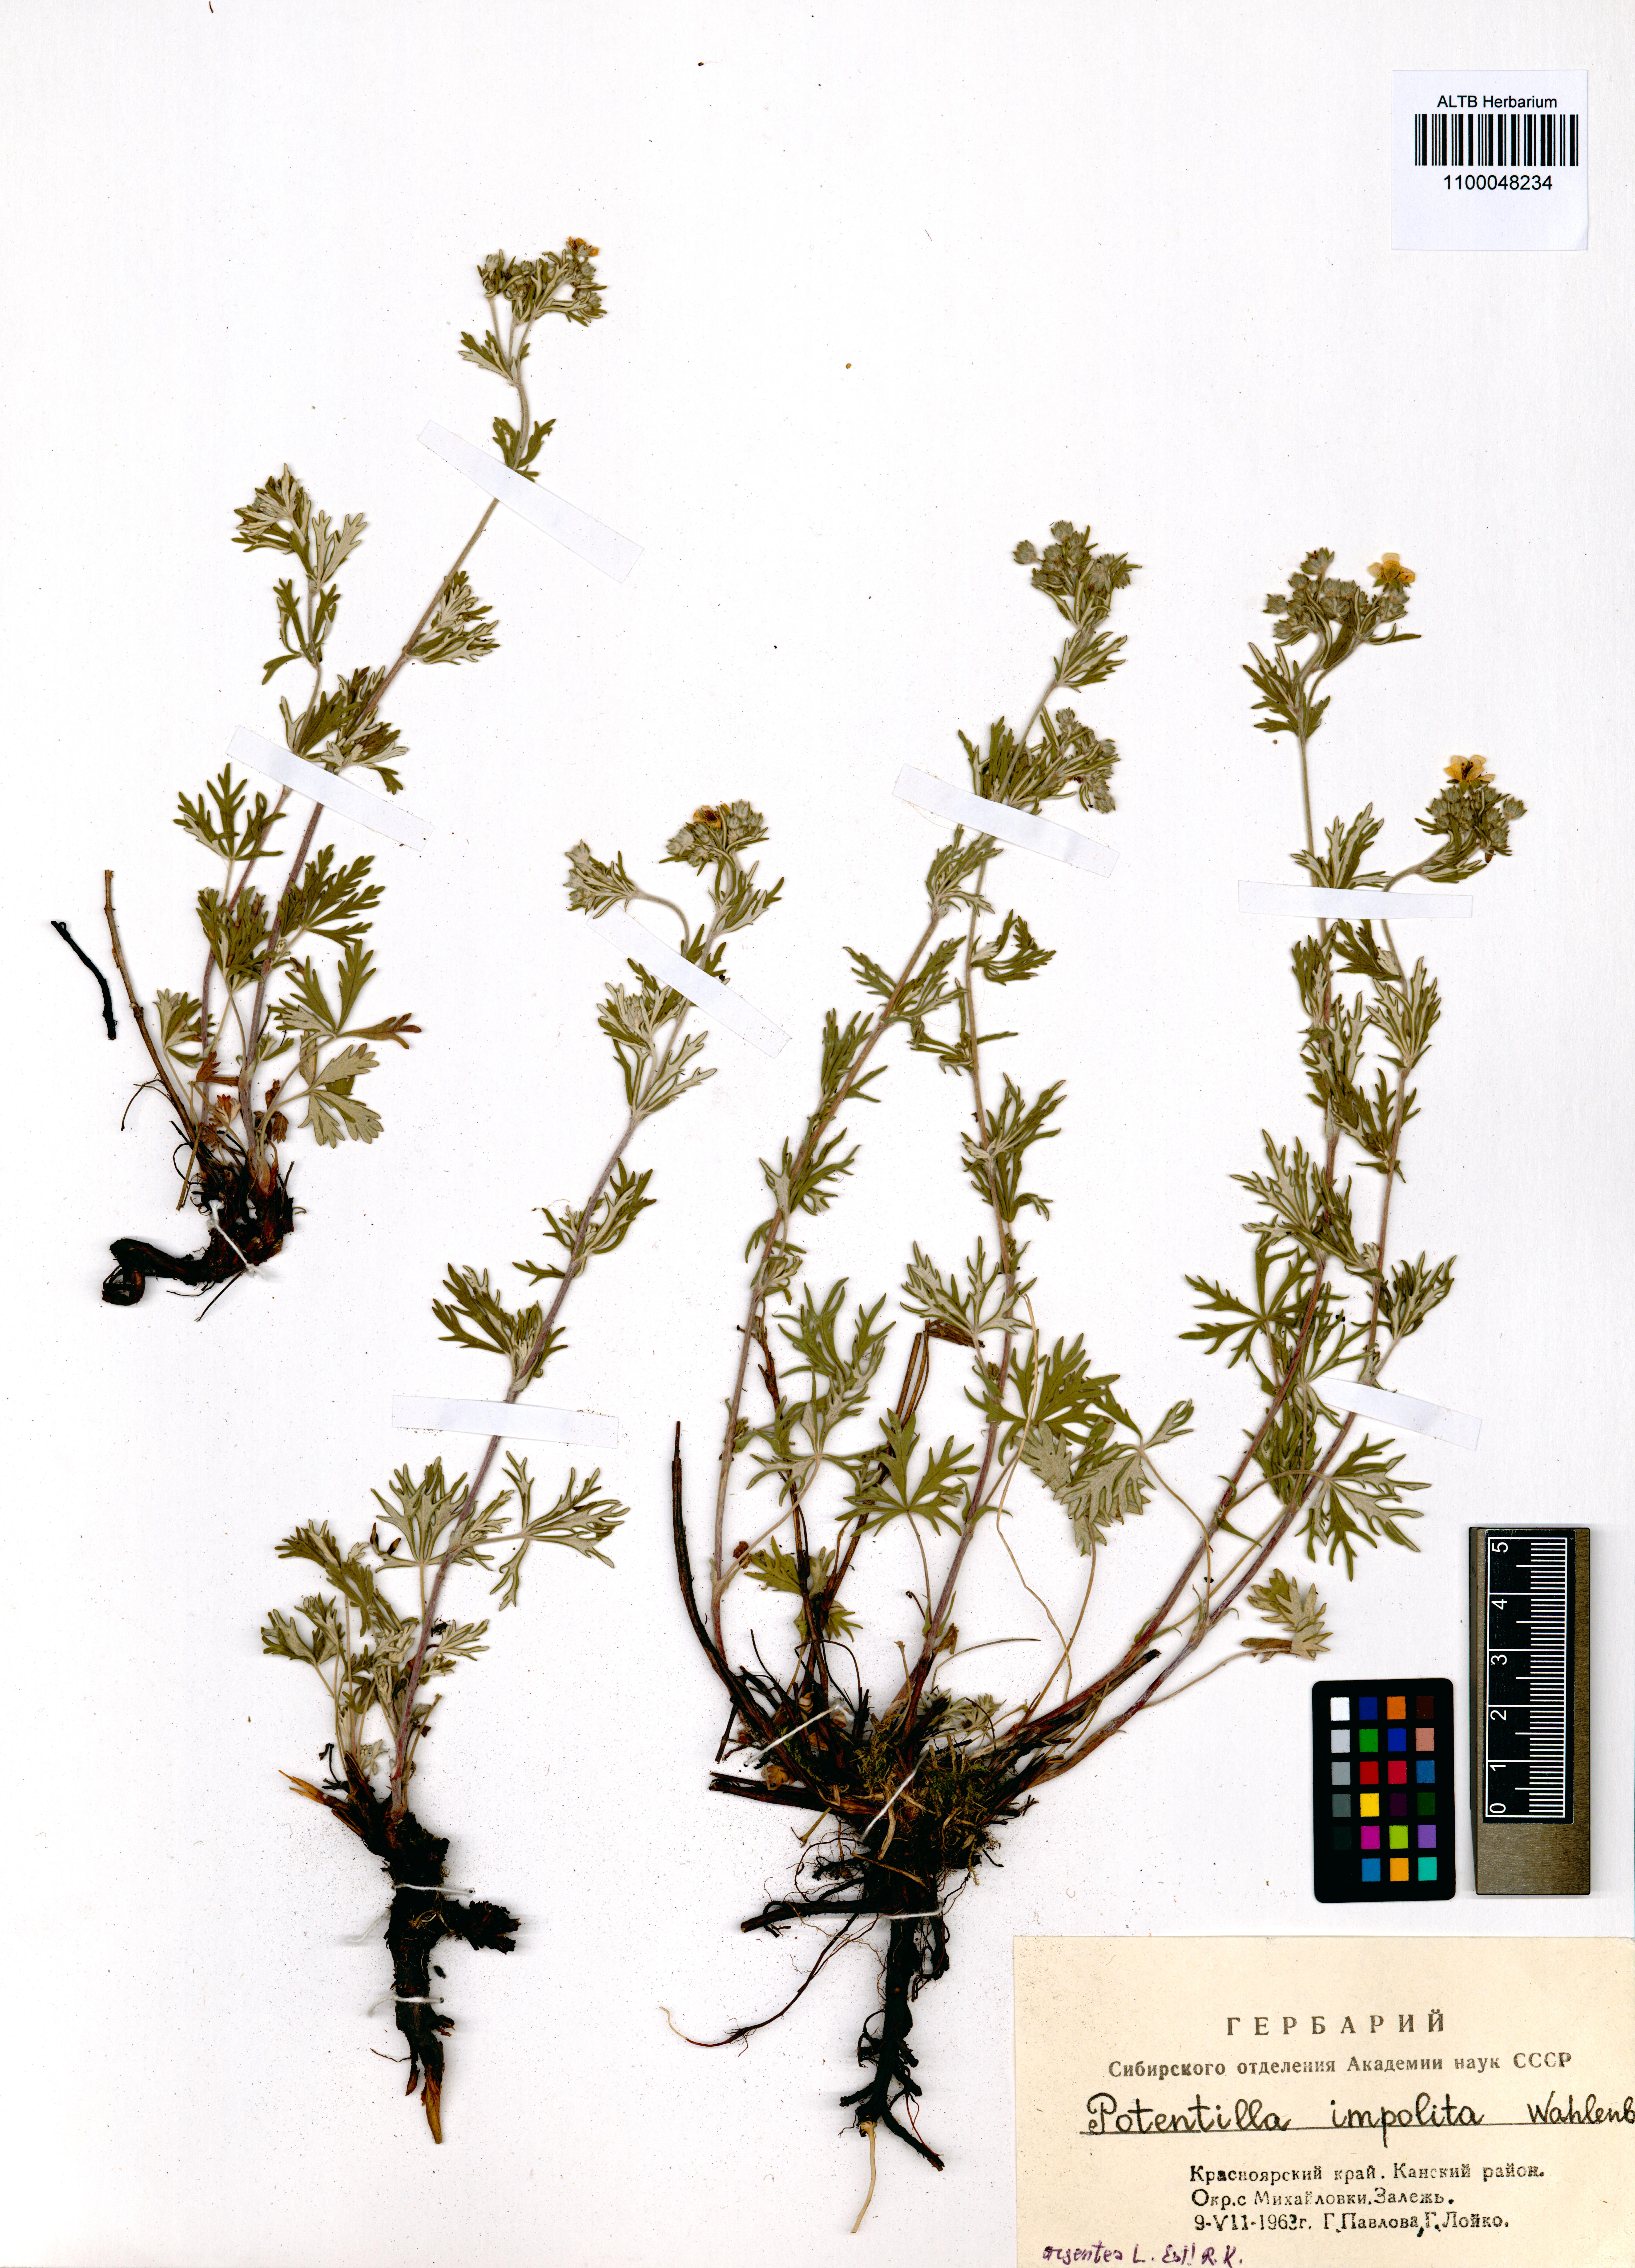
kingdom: Plantae
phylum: Tracheophyta
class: Magnoliopsida
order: Rosales
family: Rosaceae
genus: Potentilla
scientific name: Potentilla argentea
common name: Hoary cinquefoil
